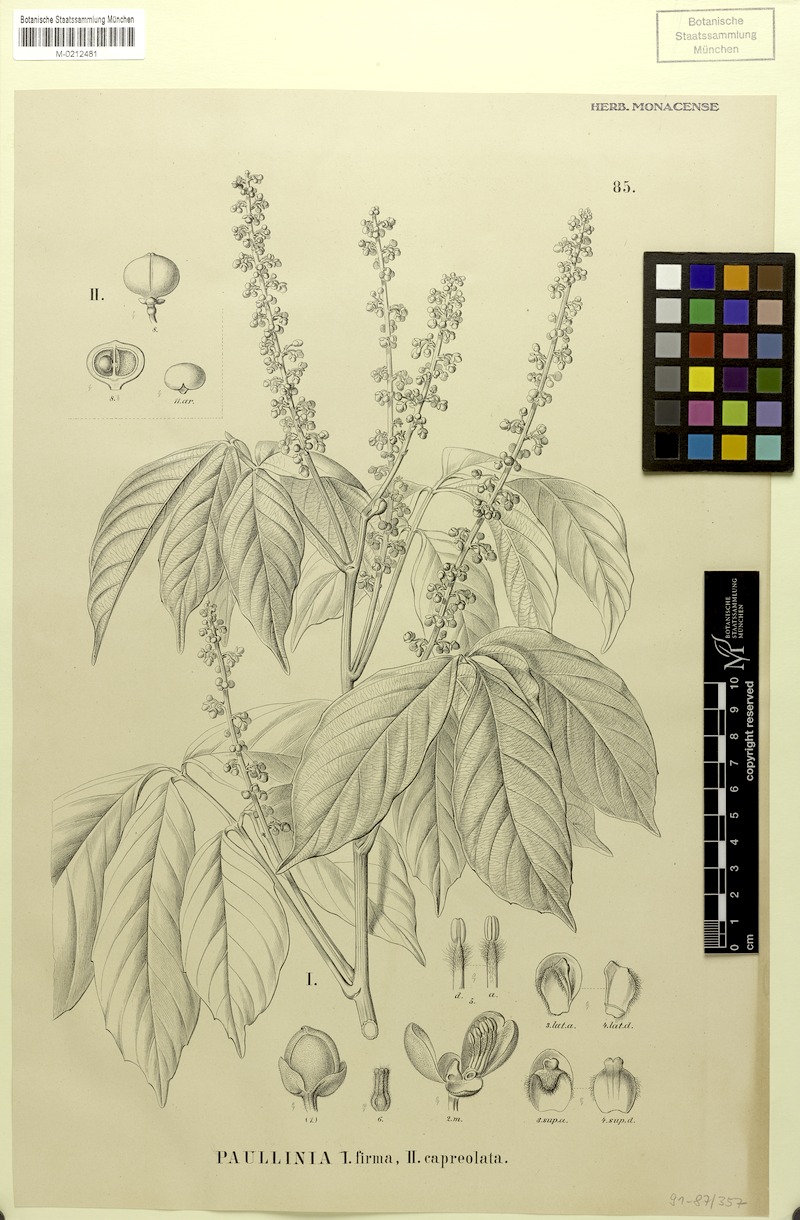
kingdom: Plantae
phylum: Tracheophyta
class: Magnoliopsida
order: Sapindales
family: Sapindaceae
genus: Paullinia
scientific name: Paullinia capreolata
